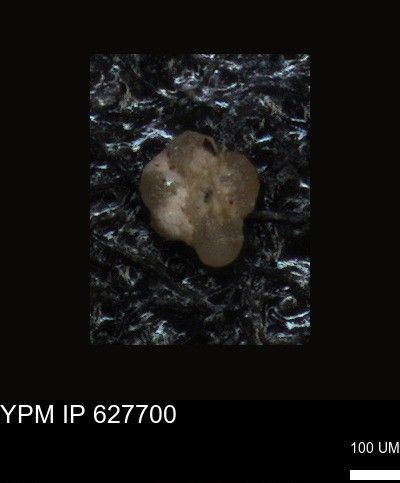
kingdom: Chromista
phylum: Foraminifera
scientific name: Foraminifera
